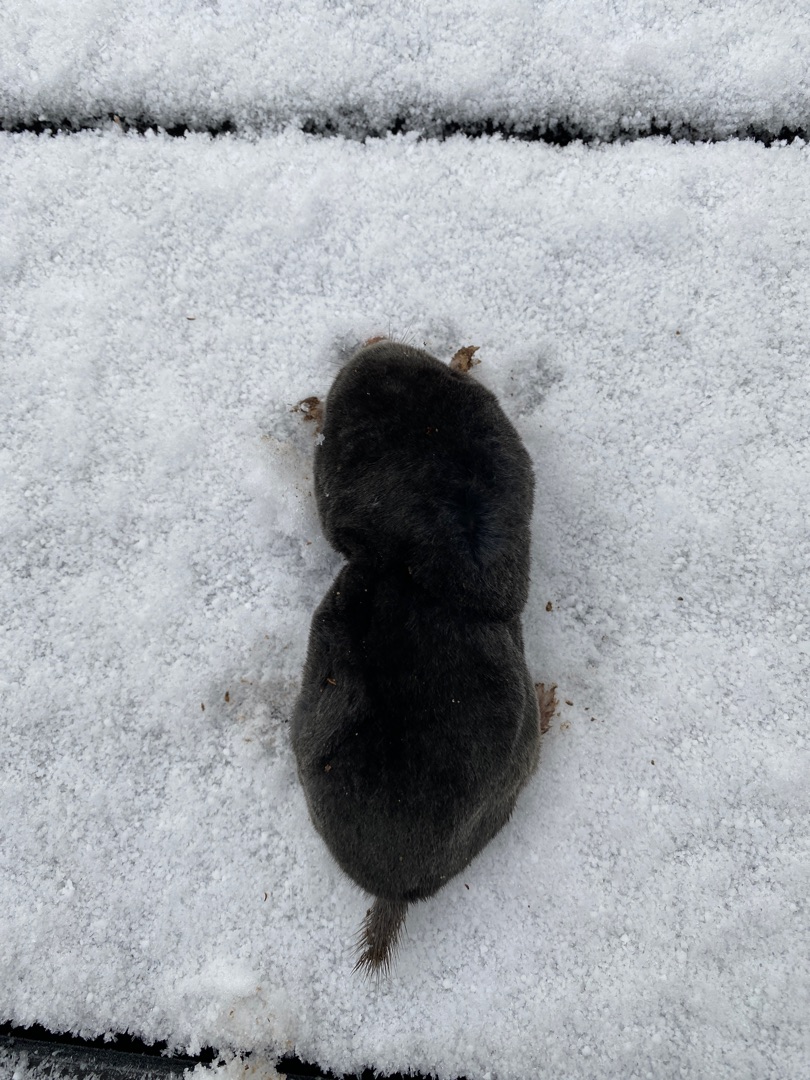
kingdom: Animalia
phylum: Chordata
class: Mammalia
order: Soricomorpha
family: Talpidae
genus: Talpa
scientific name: Talpa europaea
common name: Muldvarp
